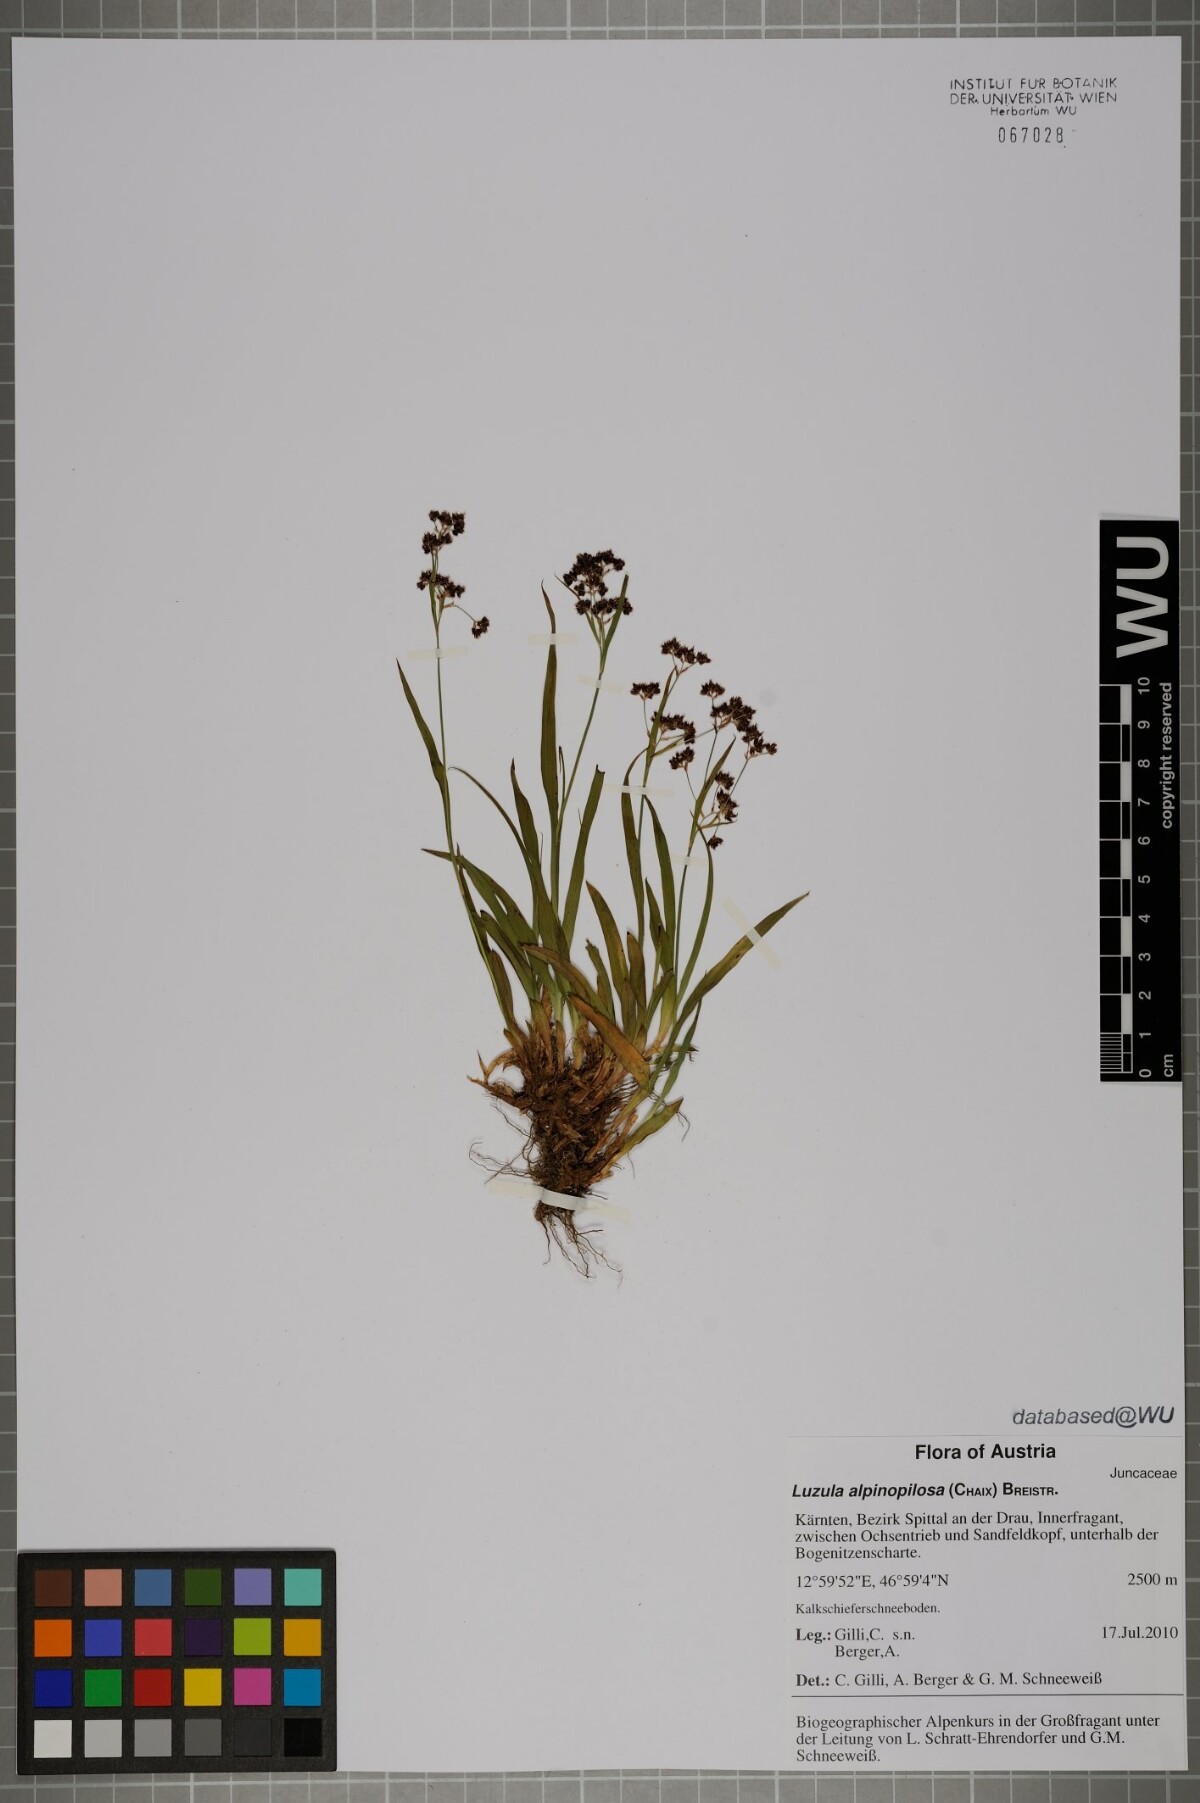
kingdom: Plantae
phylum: Tracheophyta
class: Liliopsida
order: Poales
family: Juncaceae
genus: Luzula
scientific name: Luzula alpinopilosa
